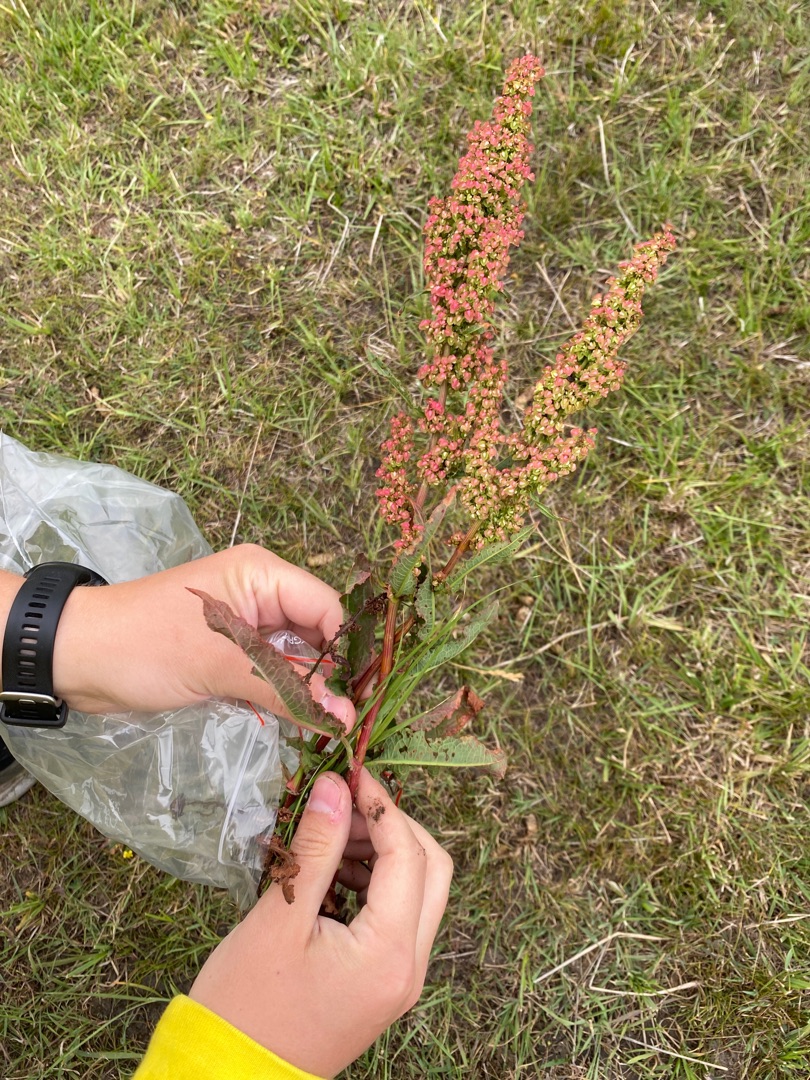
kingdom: Plantae
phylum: Tracheophyta
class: Magnoliopsida
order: Caryophyllales
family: Polygonaceae
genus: Rumex
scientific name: Rumex crispus
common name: Kruset skræppe
